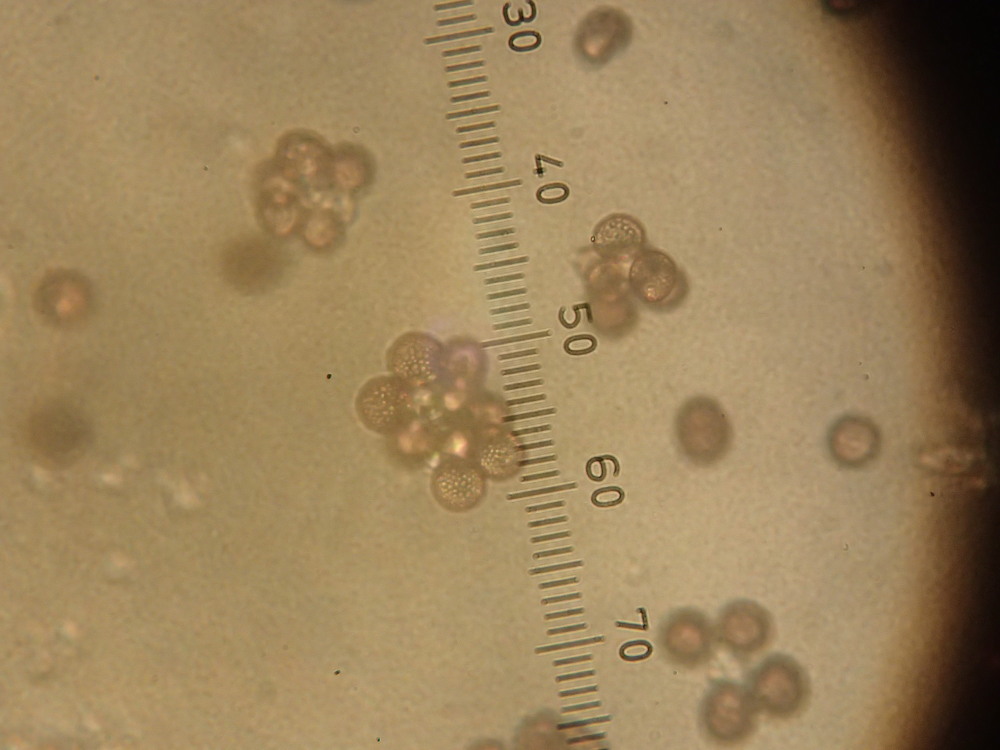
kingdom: Fungi
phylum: Basidiomycota
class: Microbotryomycetes
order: Microbotryales
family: Microbotryaceae
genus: Microbotryum
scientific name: Microbotryum tragopogonis-pratensis
